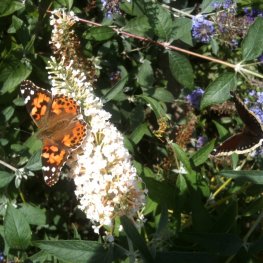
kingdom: Animalia
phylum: Arthropoda
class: Insecta
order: Lepidoptera
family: Nymphalidae
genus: Vanessa
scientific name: Vanessa cardui
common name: Painted Lady
